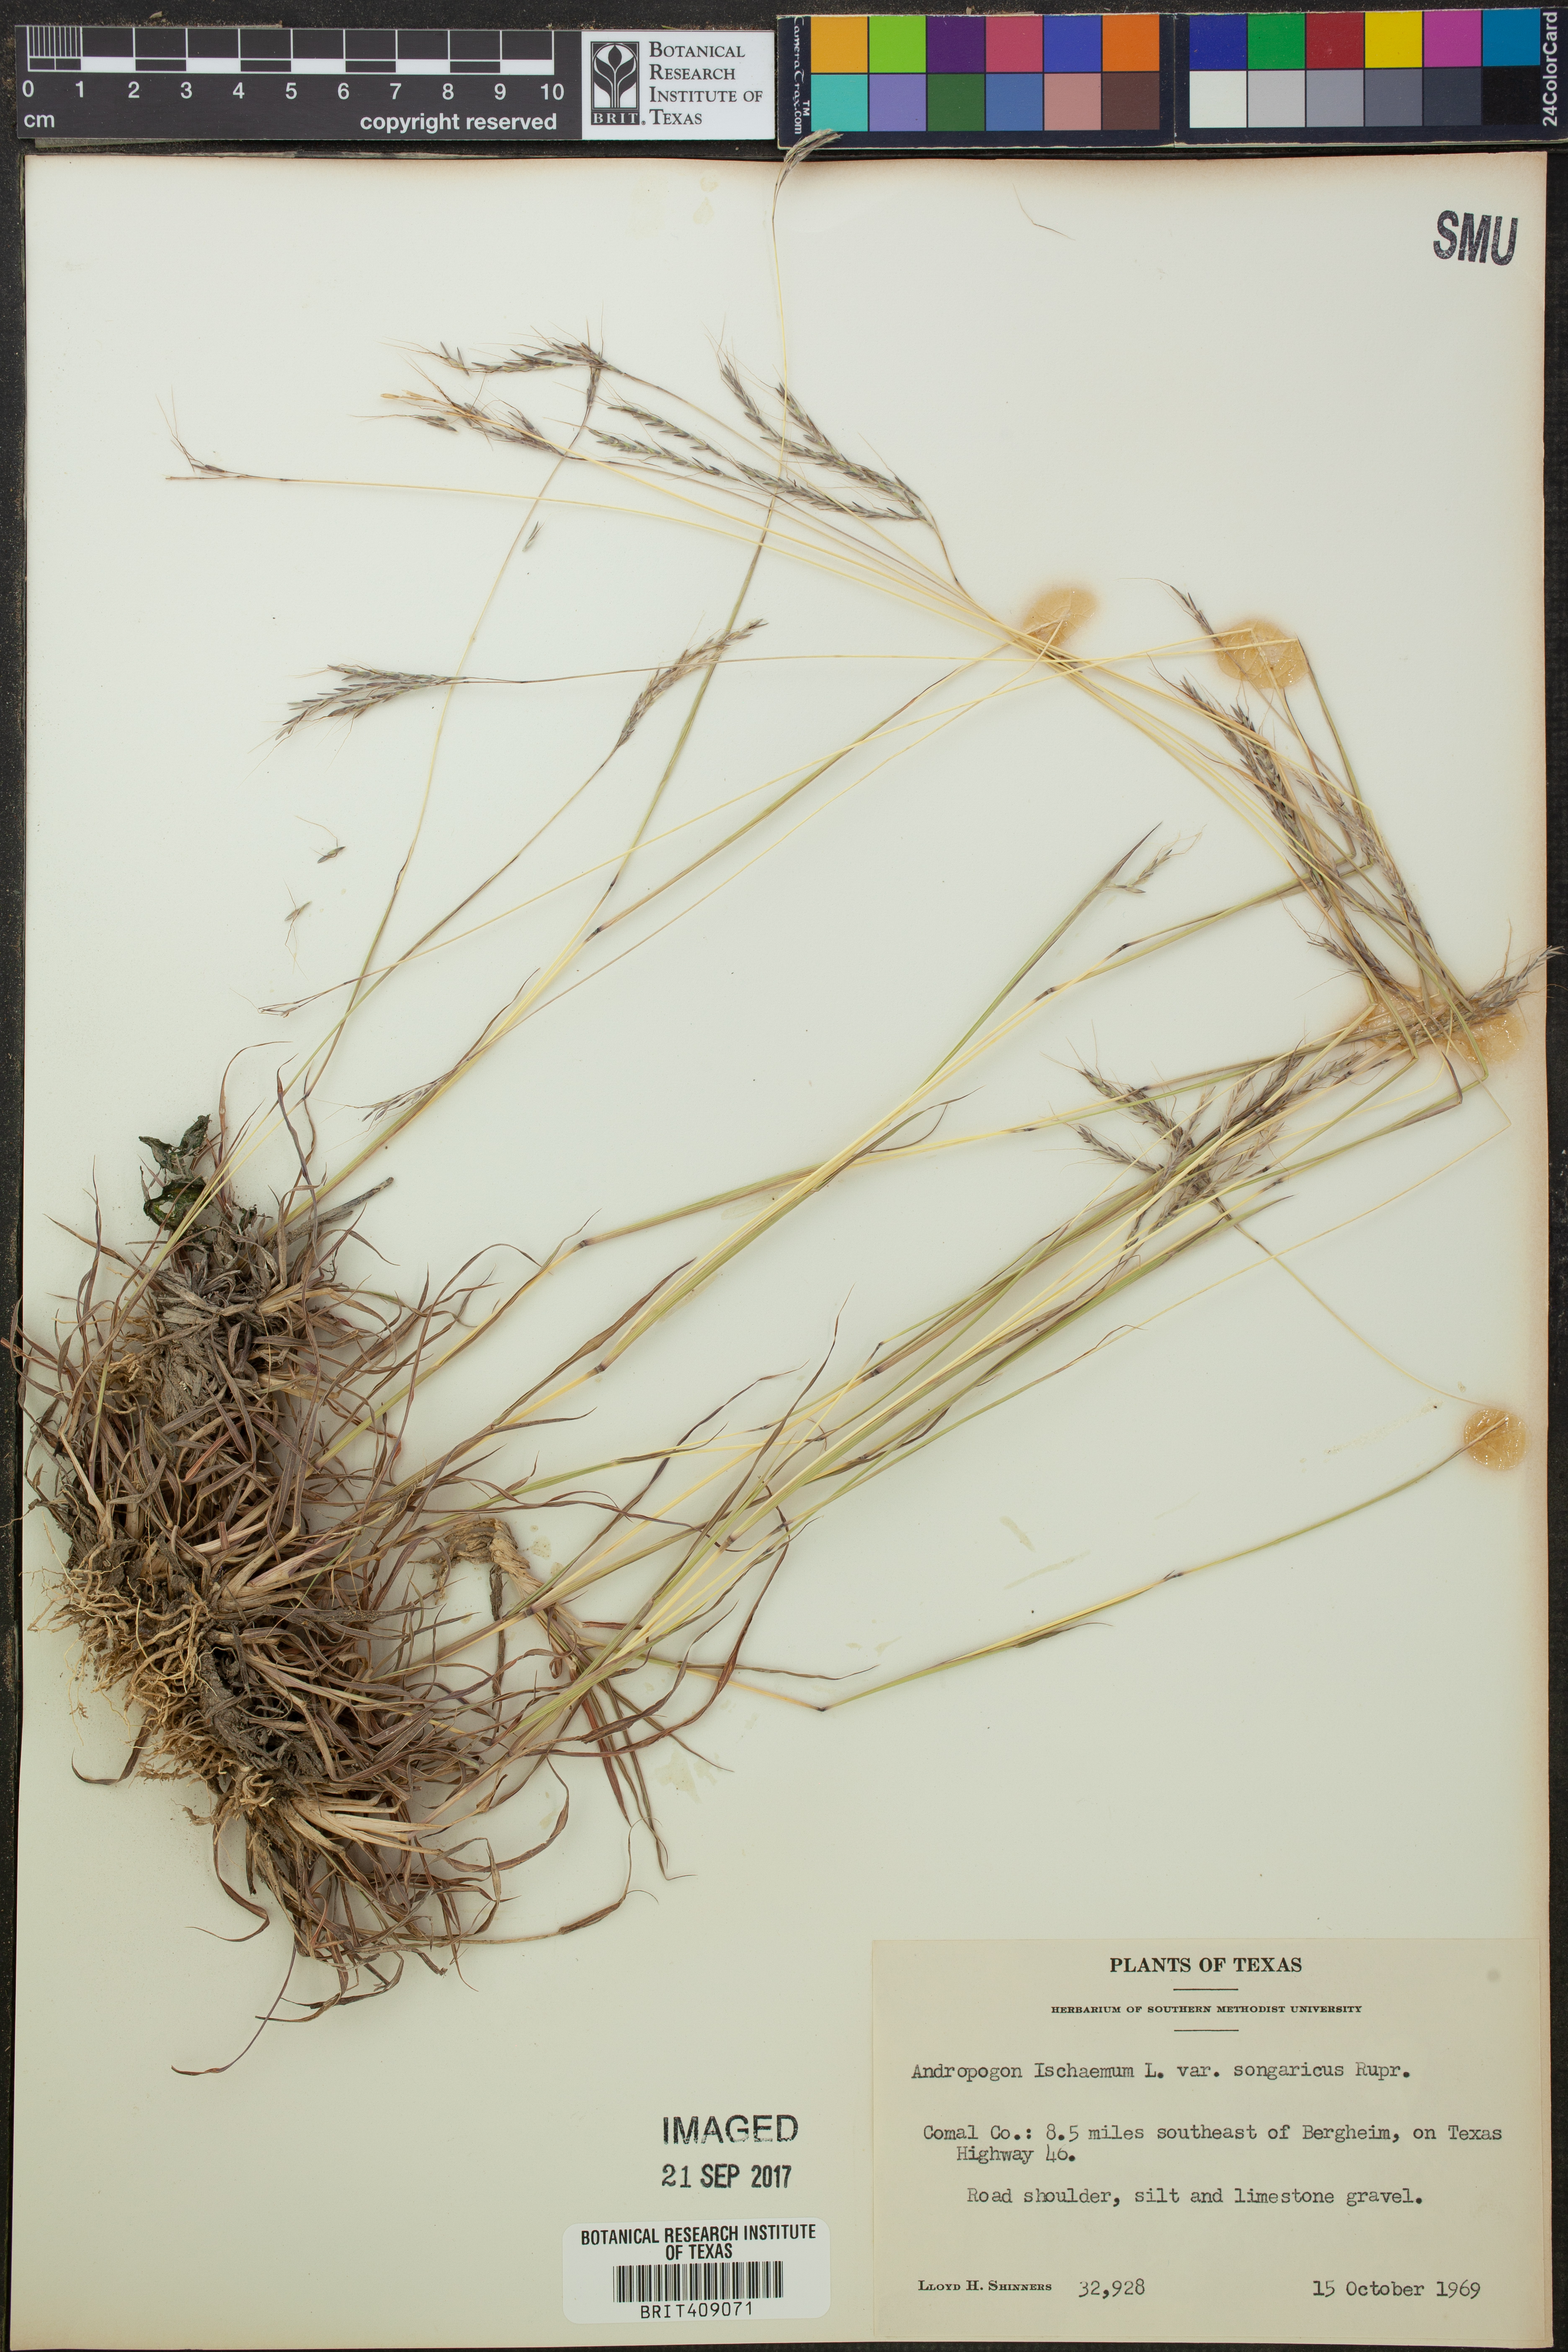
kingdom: Plantae
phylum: Tracheophyta
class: Liliopsida
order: Poales
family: Poaceae
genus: Bothriochloa
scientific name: Bothriochloa ischaemum
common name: Yellow bluestem
